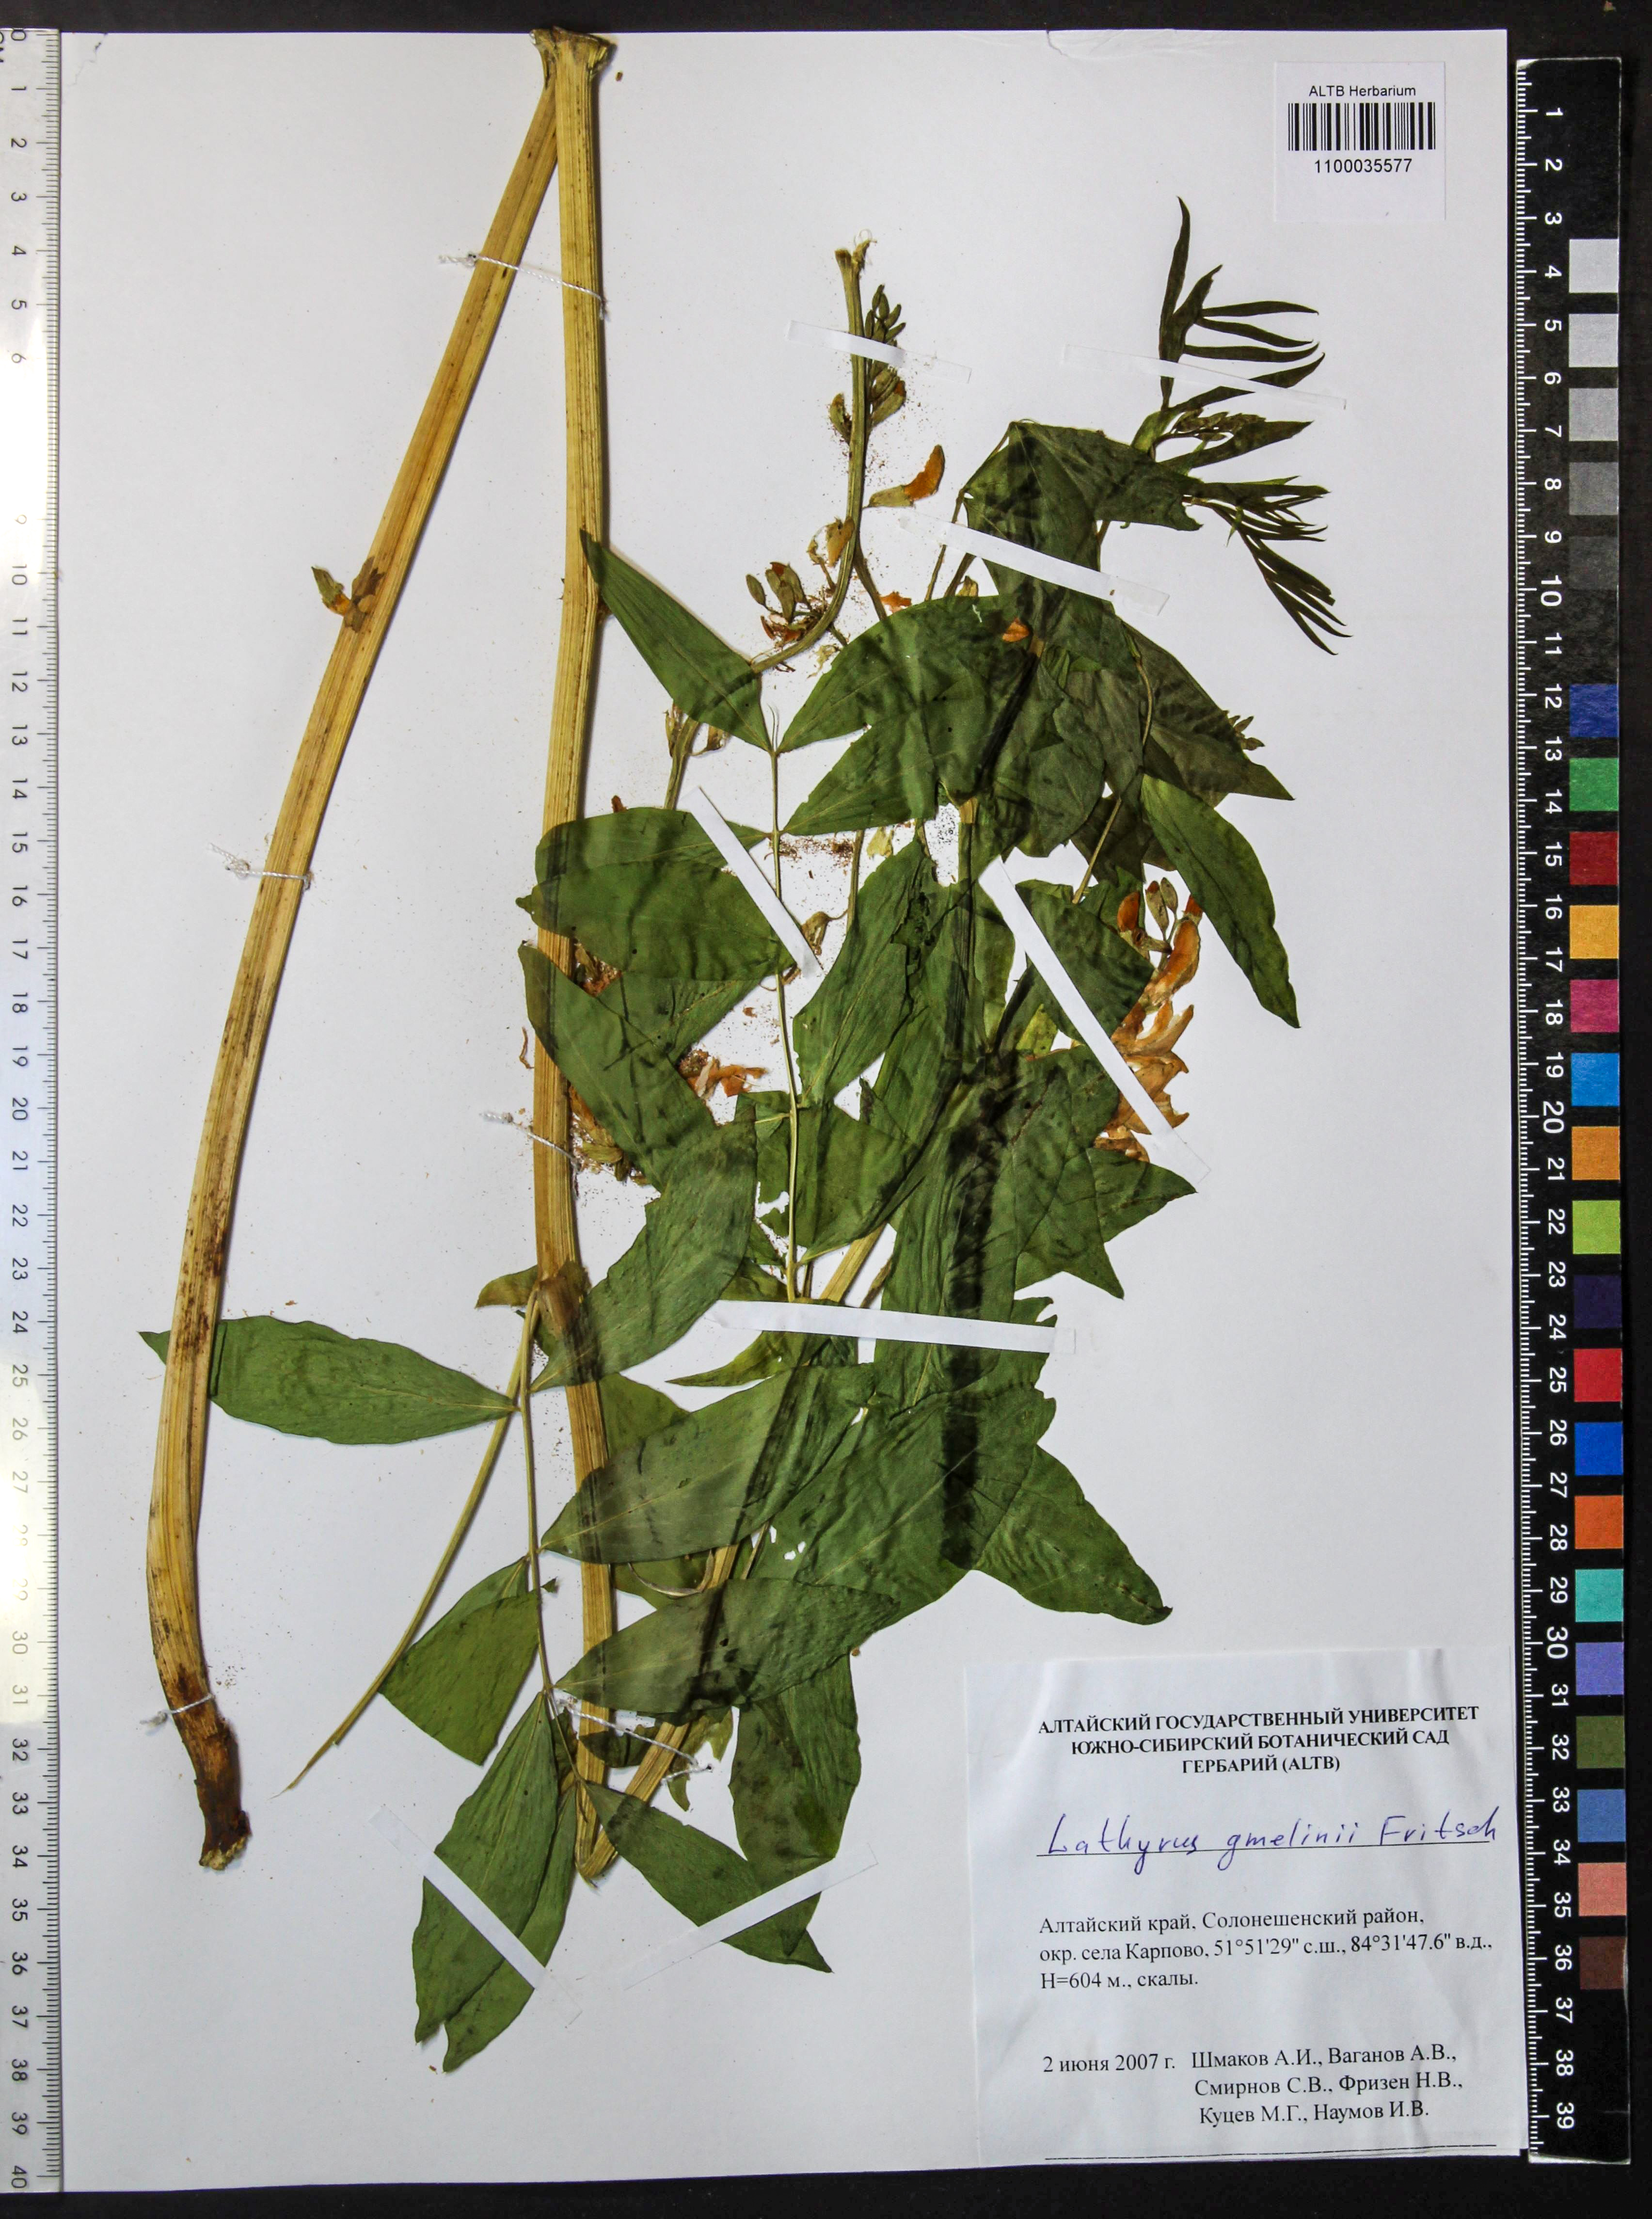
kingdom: Plantae
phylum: Tracheophyta
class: Magnoliopsida
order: Fabales
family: Fabaceae
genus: Lathyrus
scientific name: Lathyrus gmelinii
